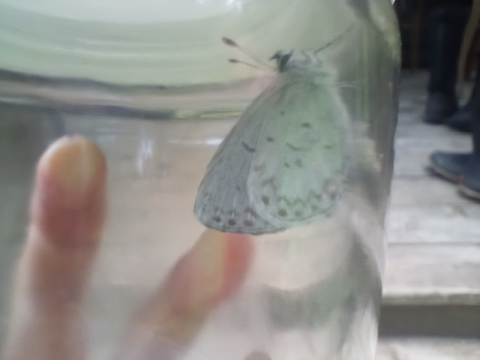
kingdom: Animalia
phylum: Arthropoda
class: Insecta
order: Lepidoptera
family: Lycaenidae
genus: Cyaniris
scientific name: Cyaniris neglecta
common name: Summer Azure
